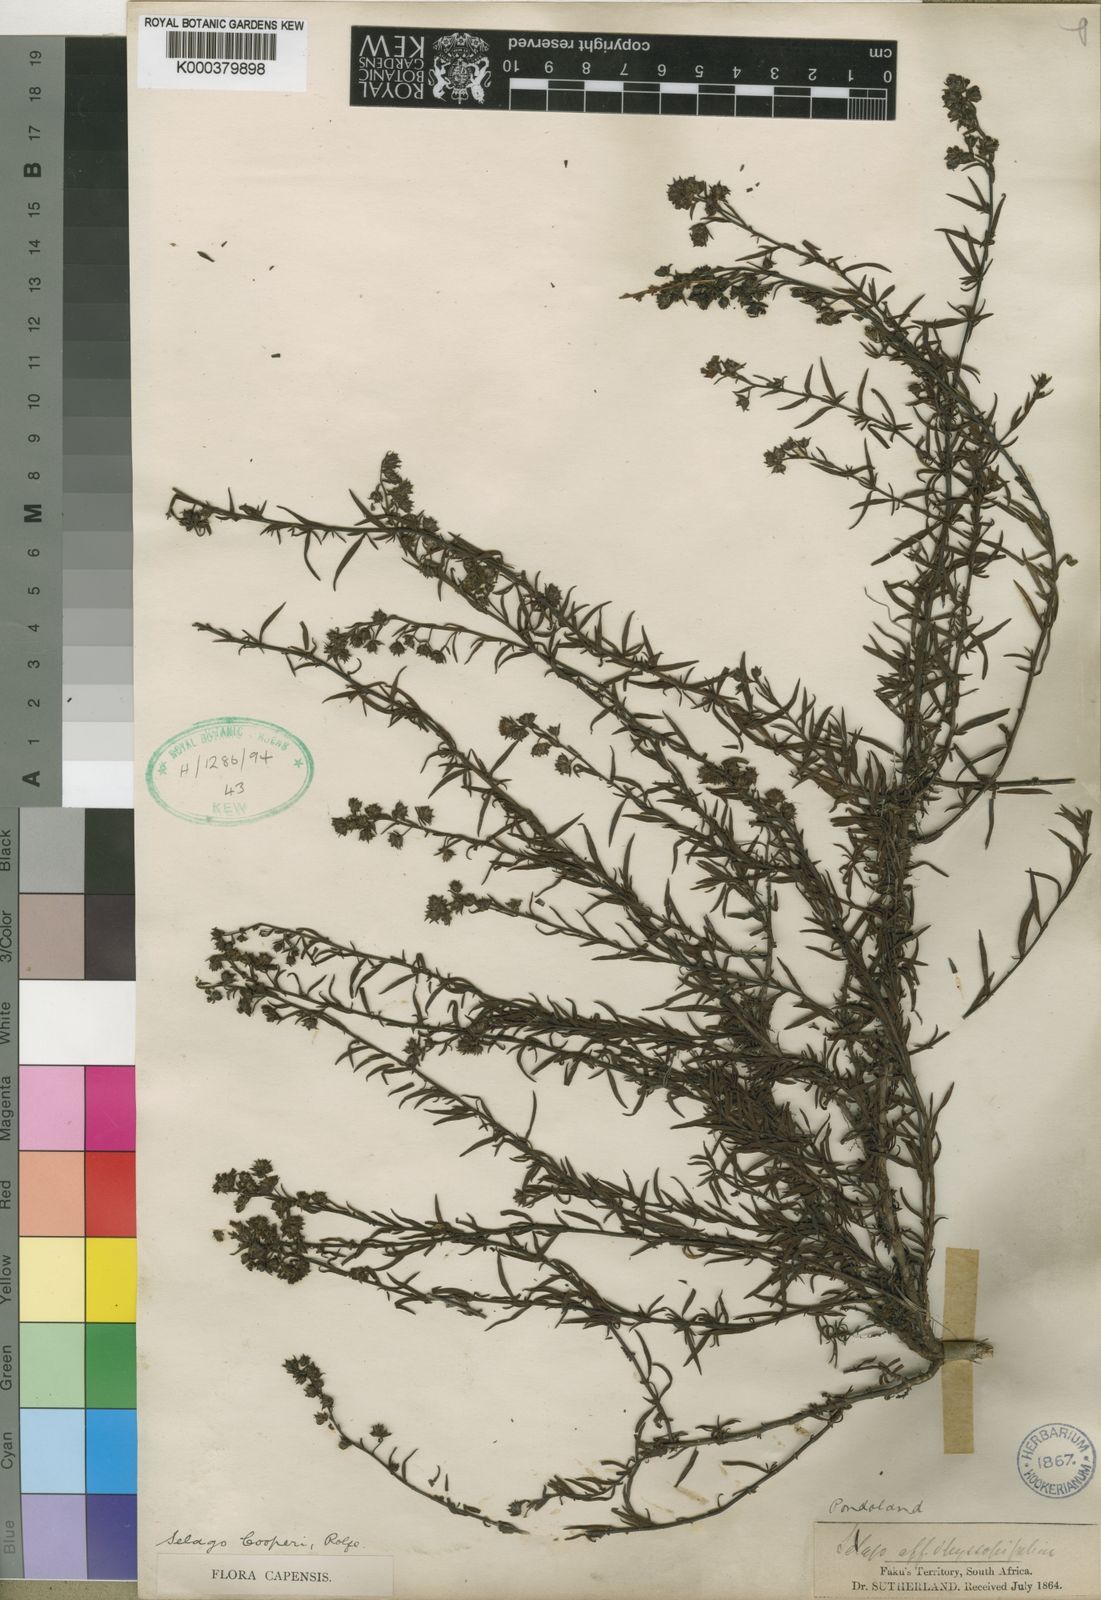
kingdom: Plantae
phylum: Tracheophyta
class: Magnoliopsida
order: Lamiales
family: Scrophulariaceae
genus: Selago
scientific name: Selago galpinii
